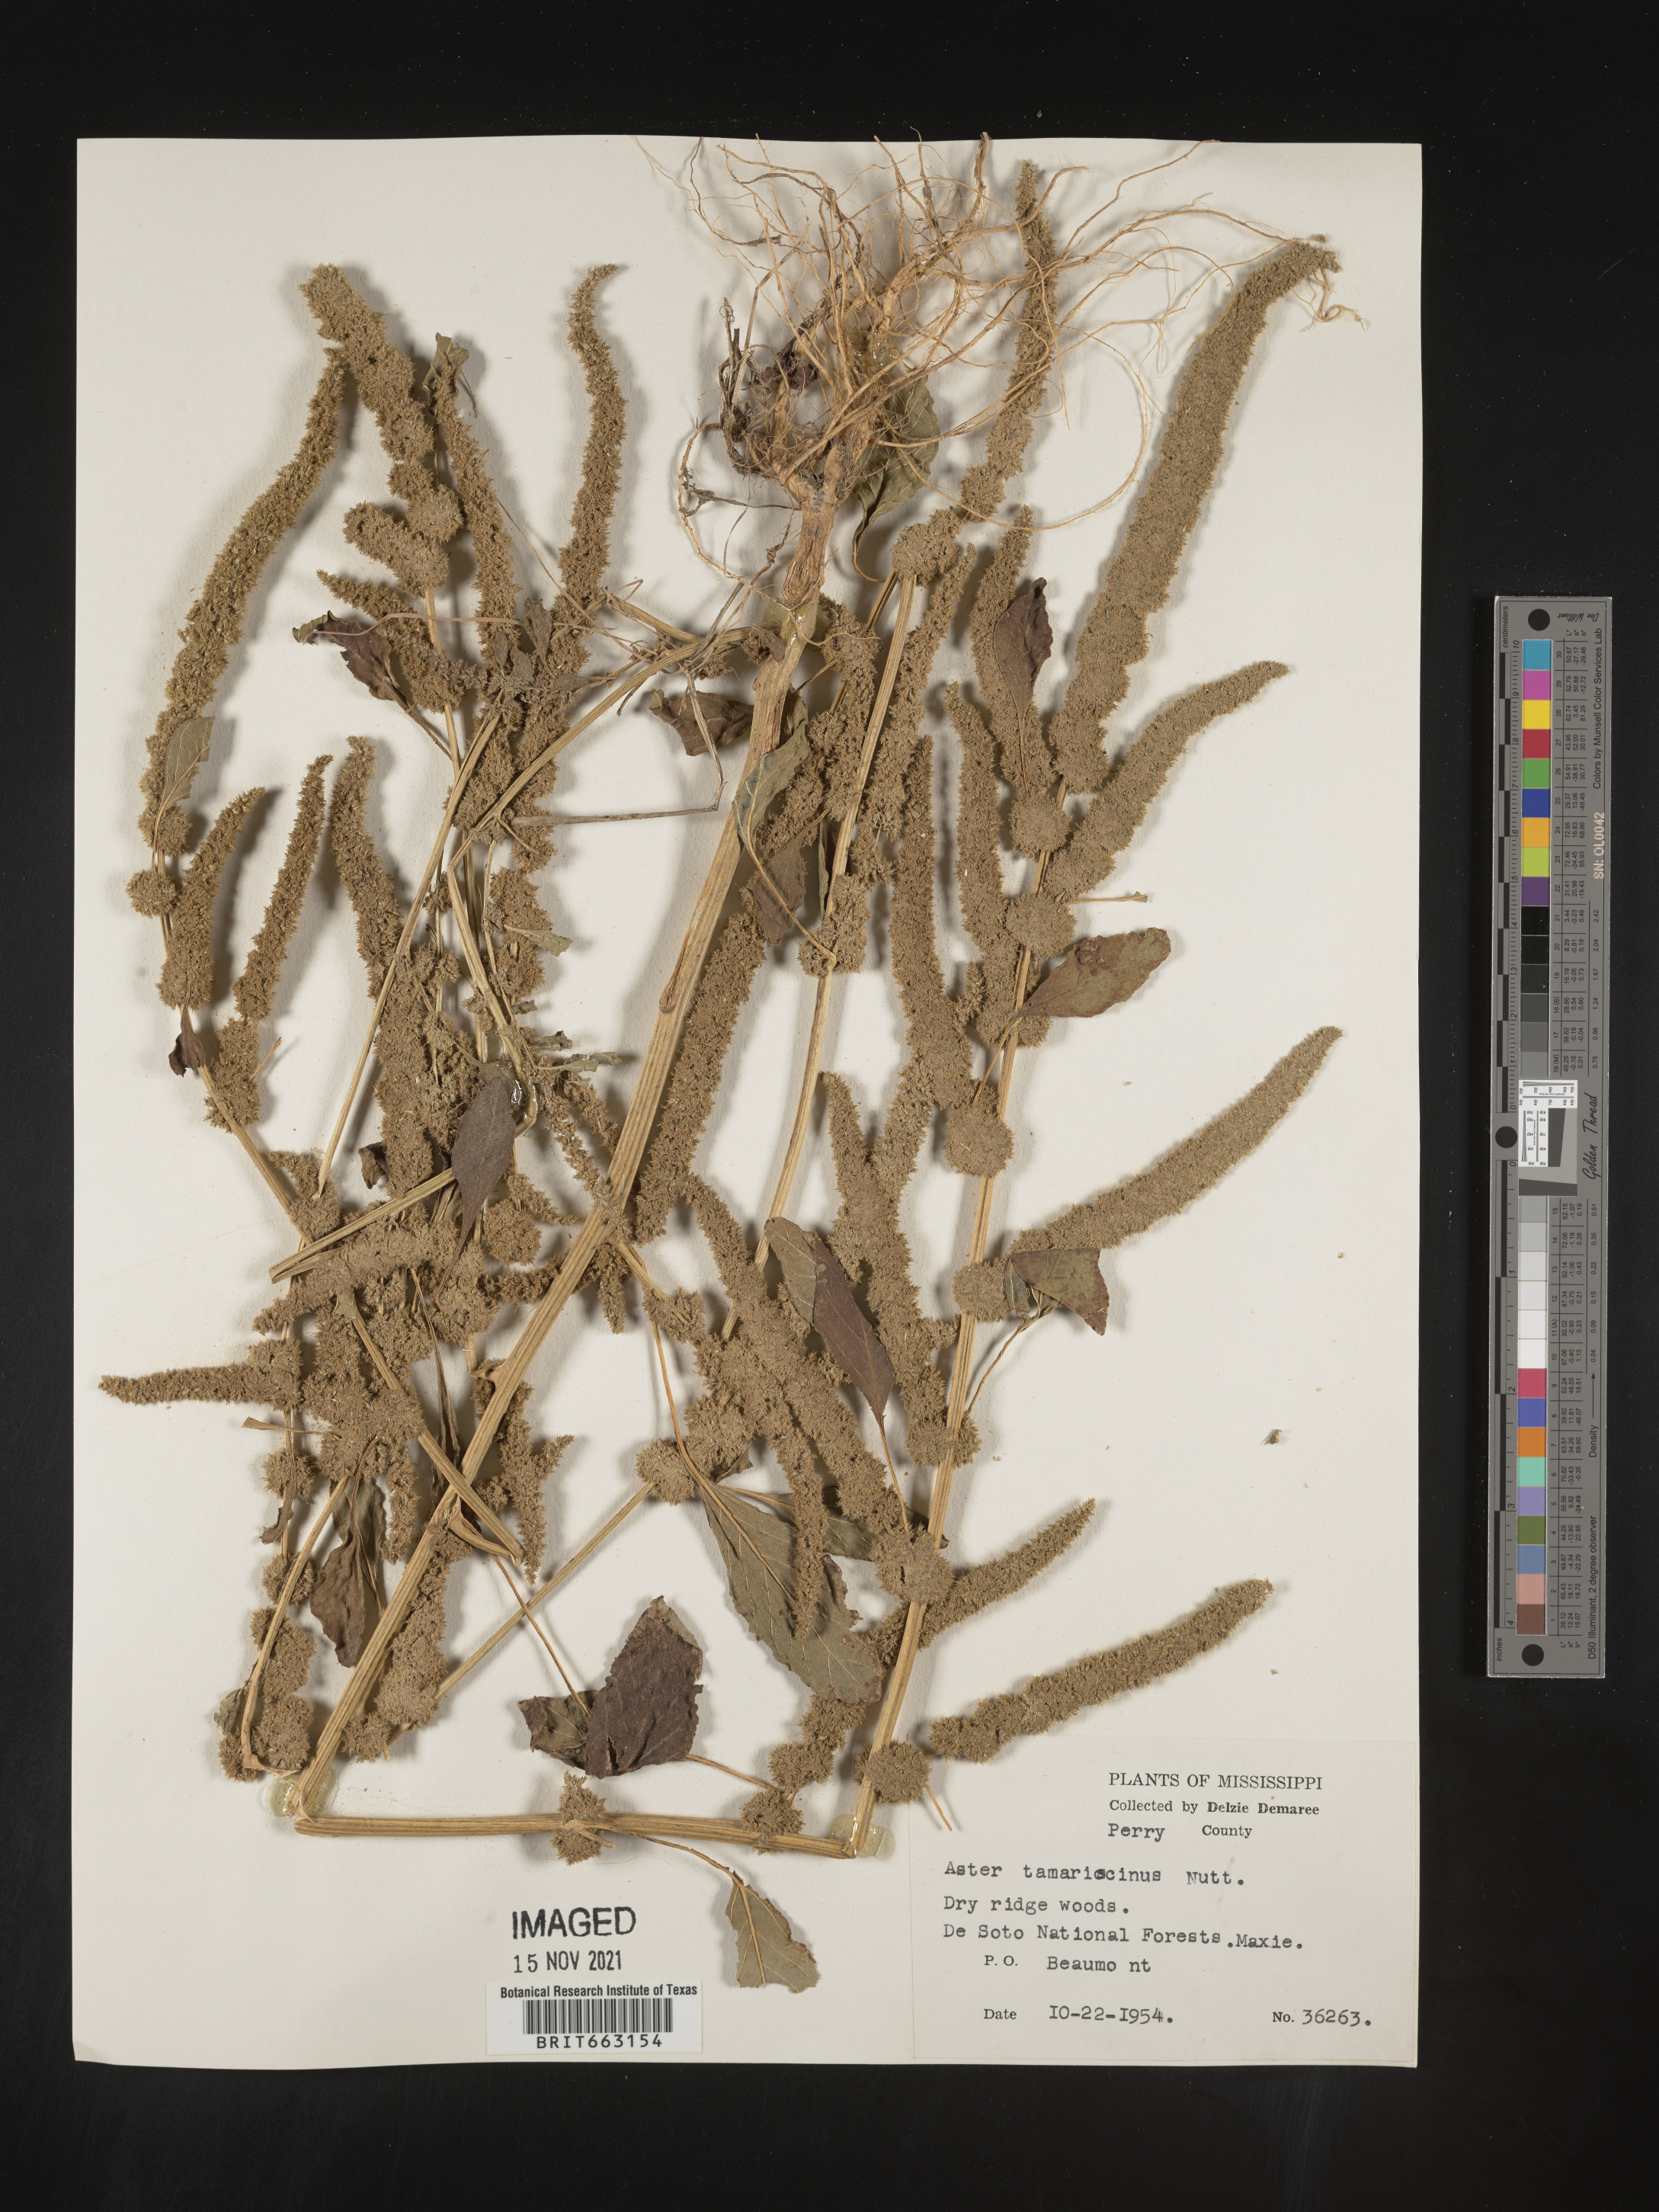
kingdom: Plantae
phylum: Tracheophyta
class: Magnoliopsida
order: Caryophyllales
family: Amaranthaceae
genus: Amaranthus
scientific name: Amaranthus tamariscinus
